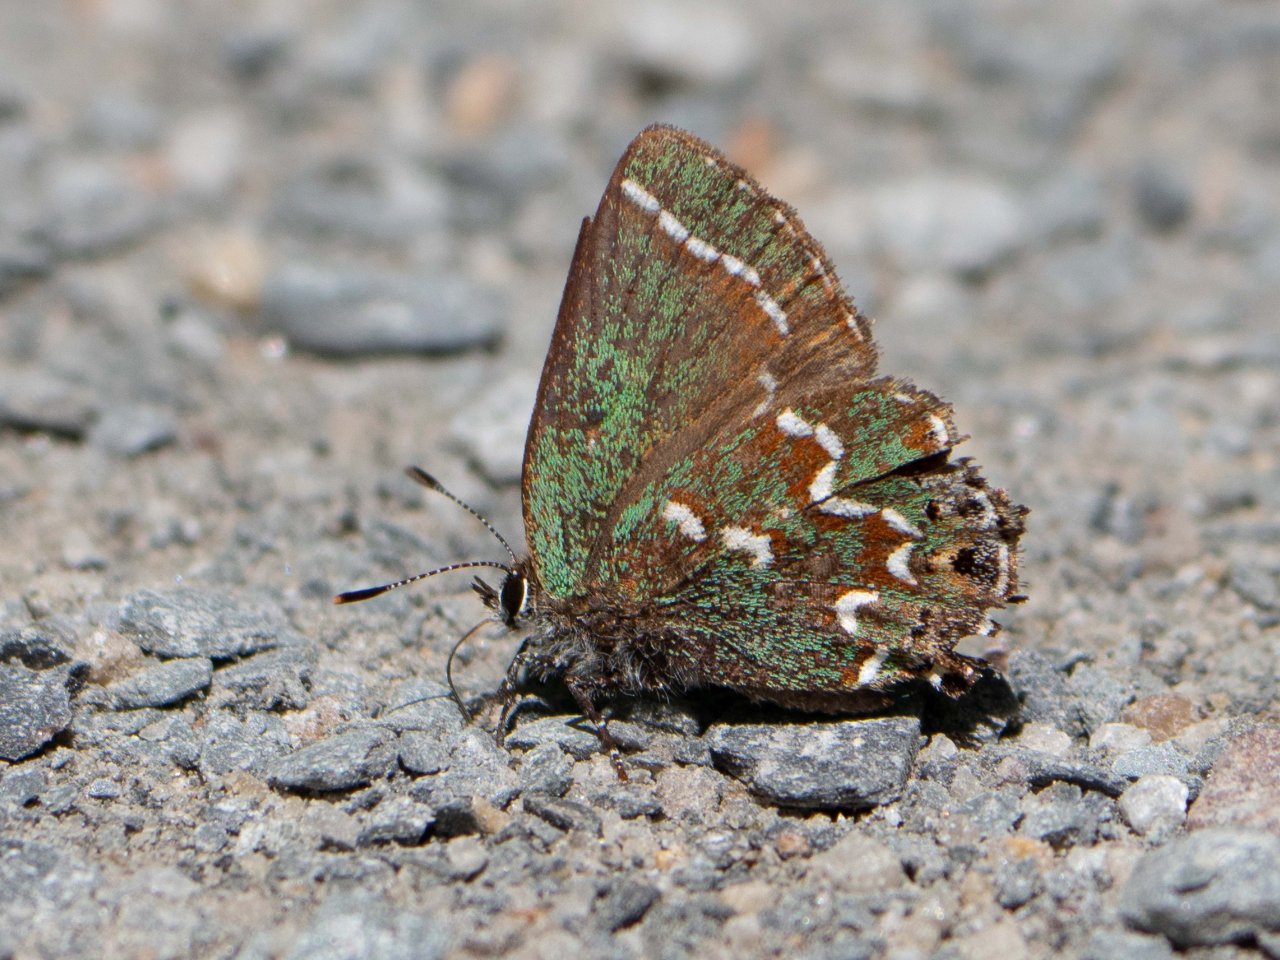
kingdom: Animalia
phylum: Arthropoda
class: Insecta
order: Lepidoptera
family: Lycaenidae
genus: Mitoura
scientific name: Mitoura gryneus
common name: Juniper Hairstreak
